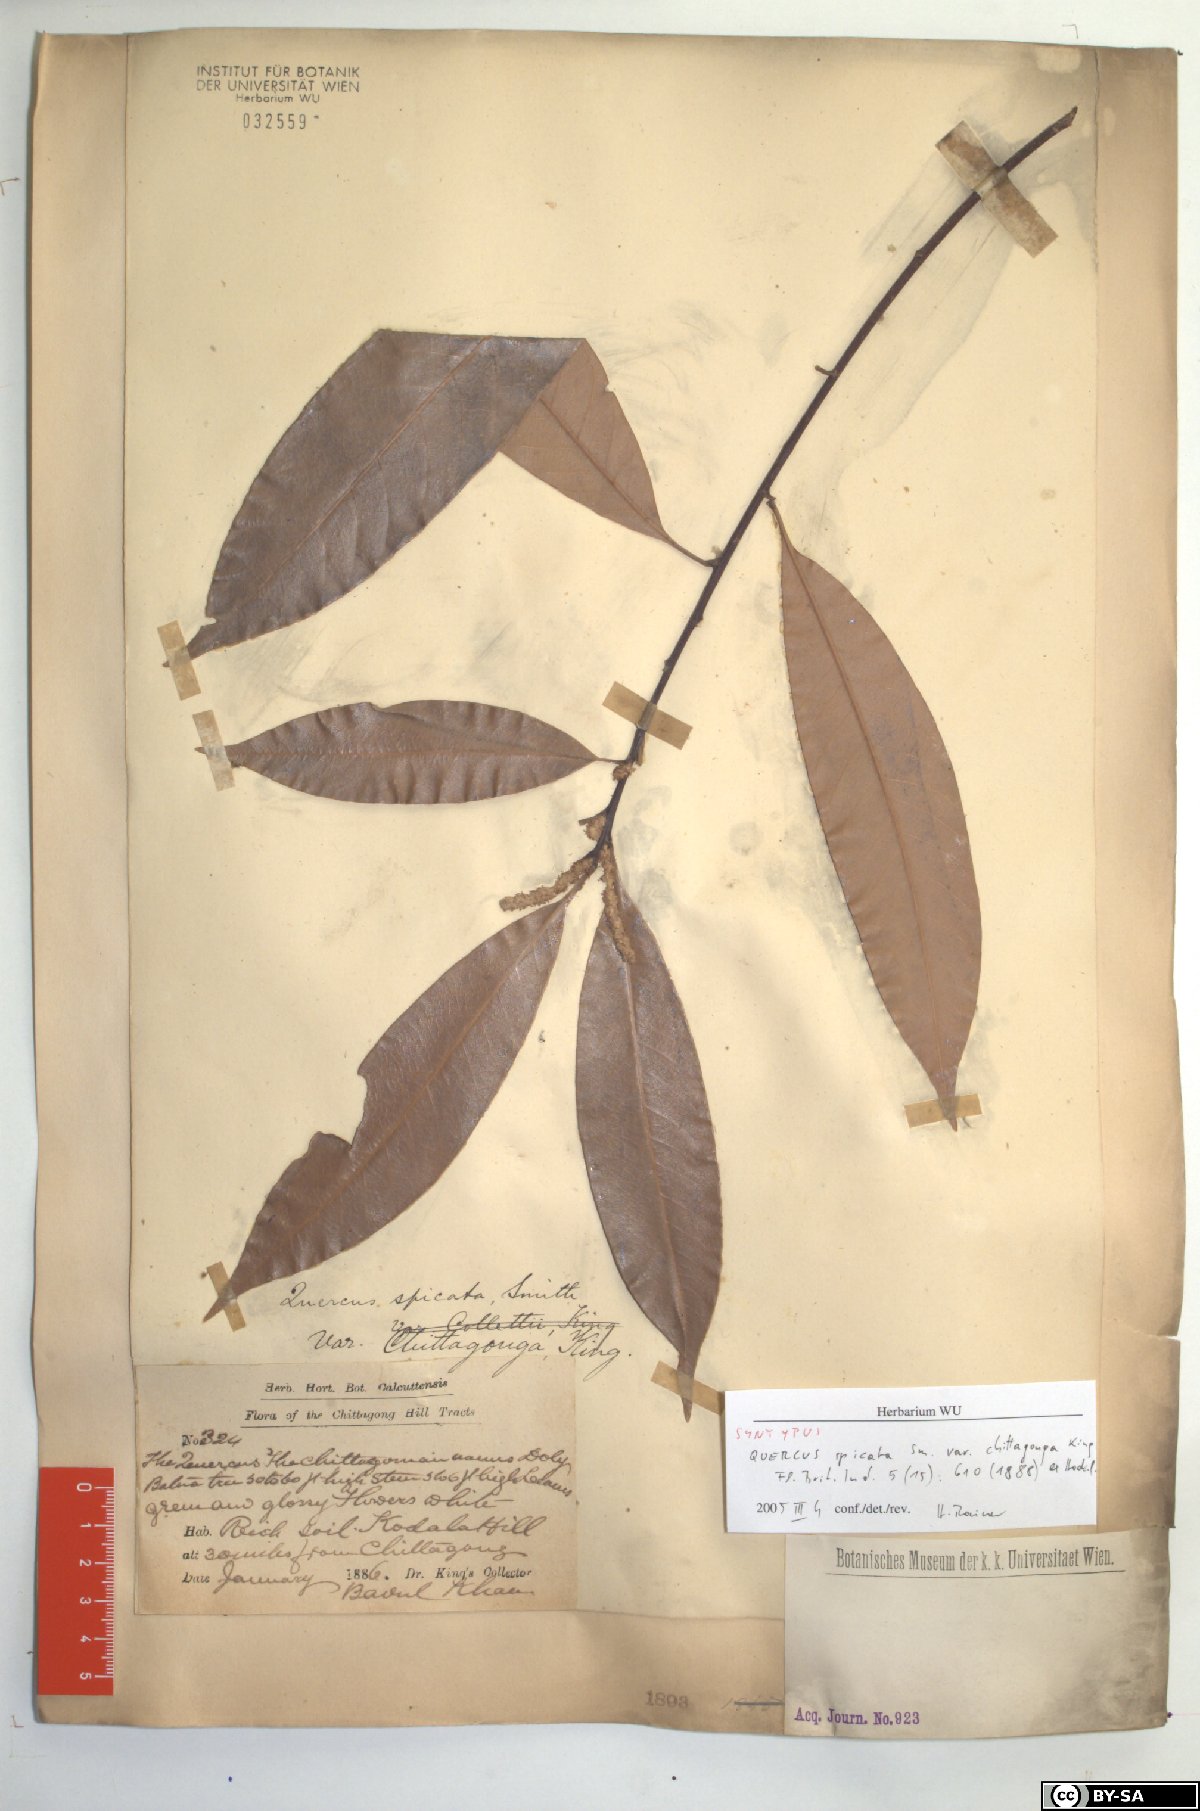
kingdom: Plantae
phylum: Tracheophyta
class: Magnoliopsida
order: Fagales
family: Fagaceae
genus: Lithocarpus
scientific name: Lithocarpus chittagongus
